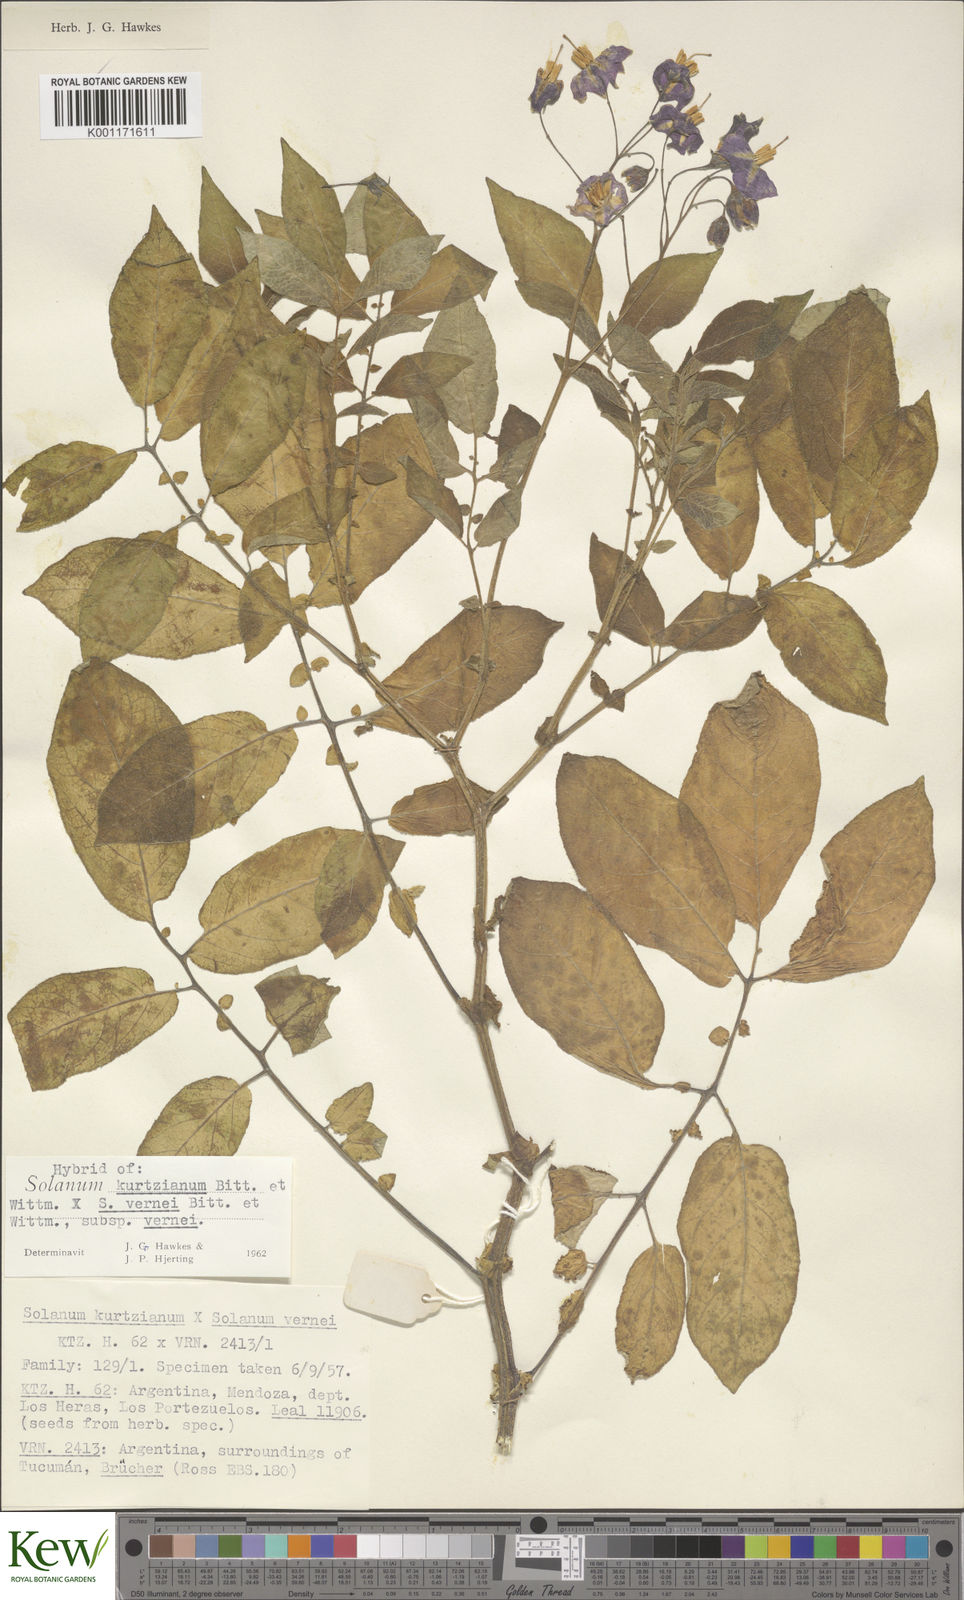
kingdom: Plantae
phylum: Tracheophyta
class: Magnoliopsida
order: Solanales
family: Solanaceae
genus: Solanum
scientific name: Solanum vernei
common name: Purple potato
